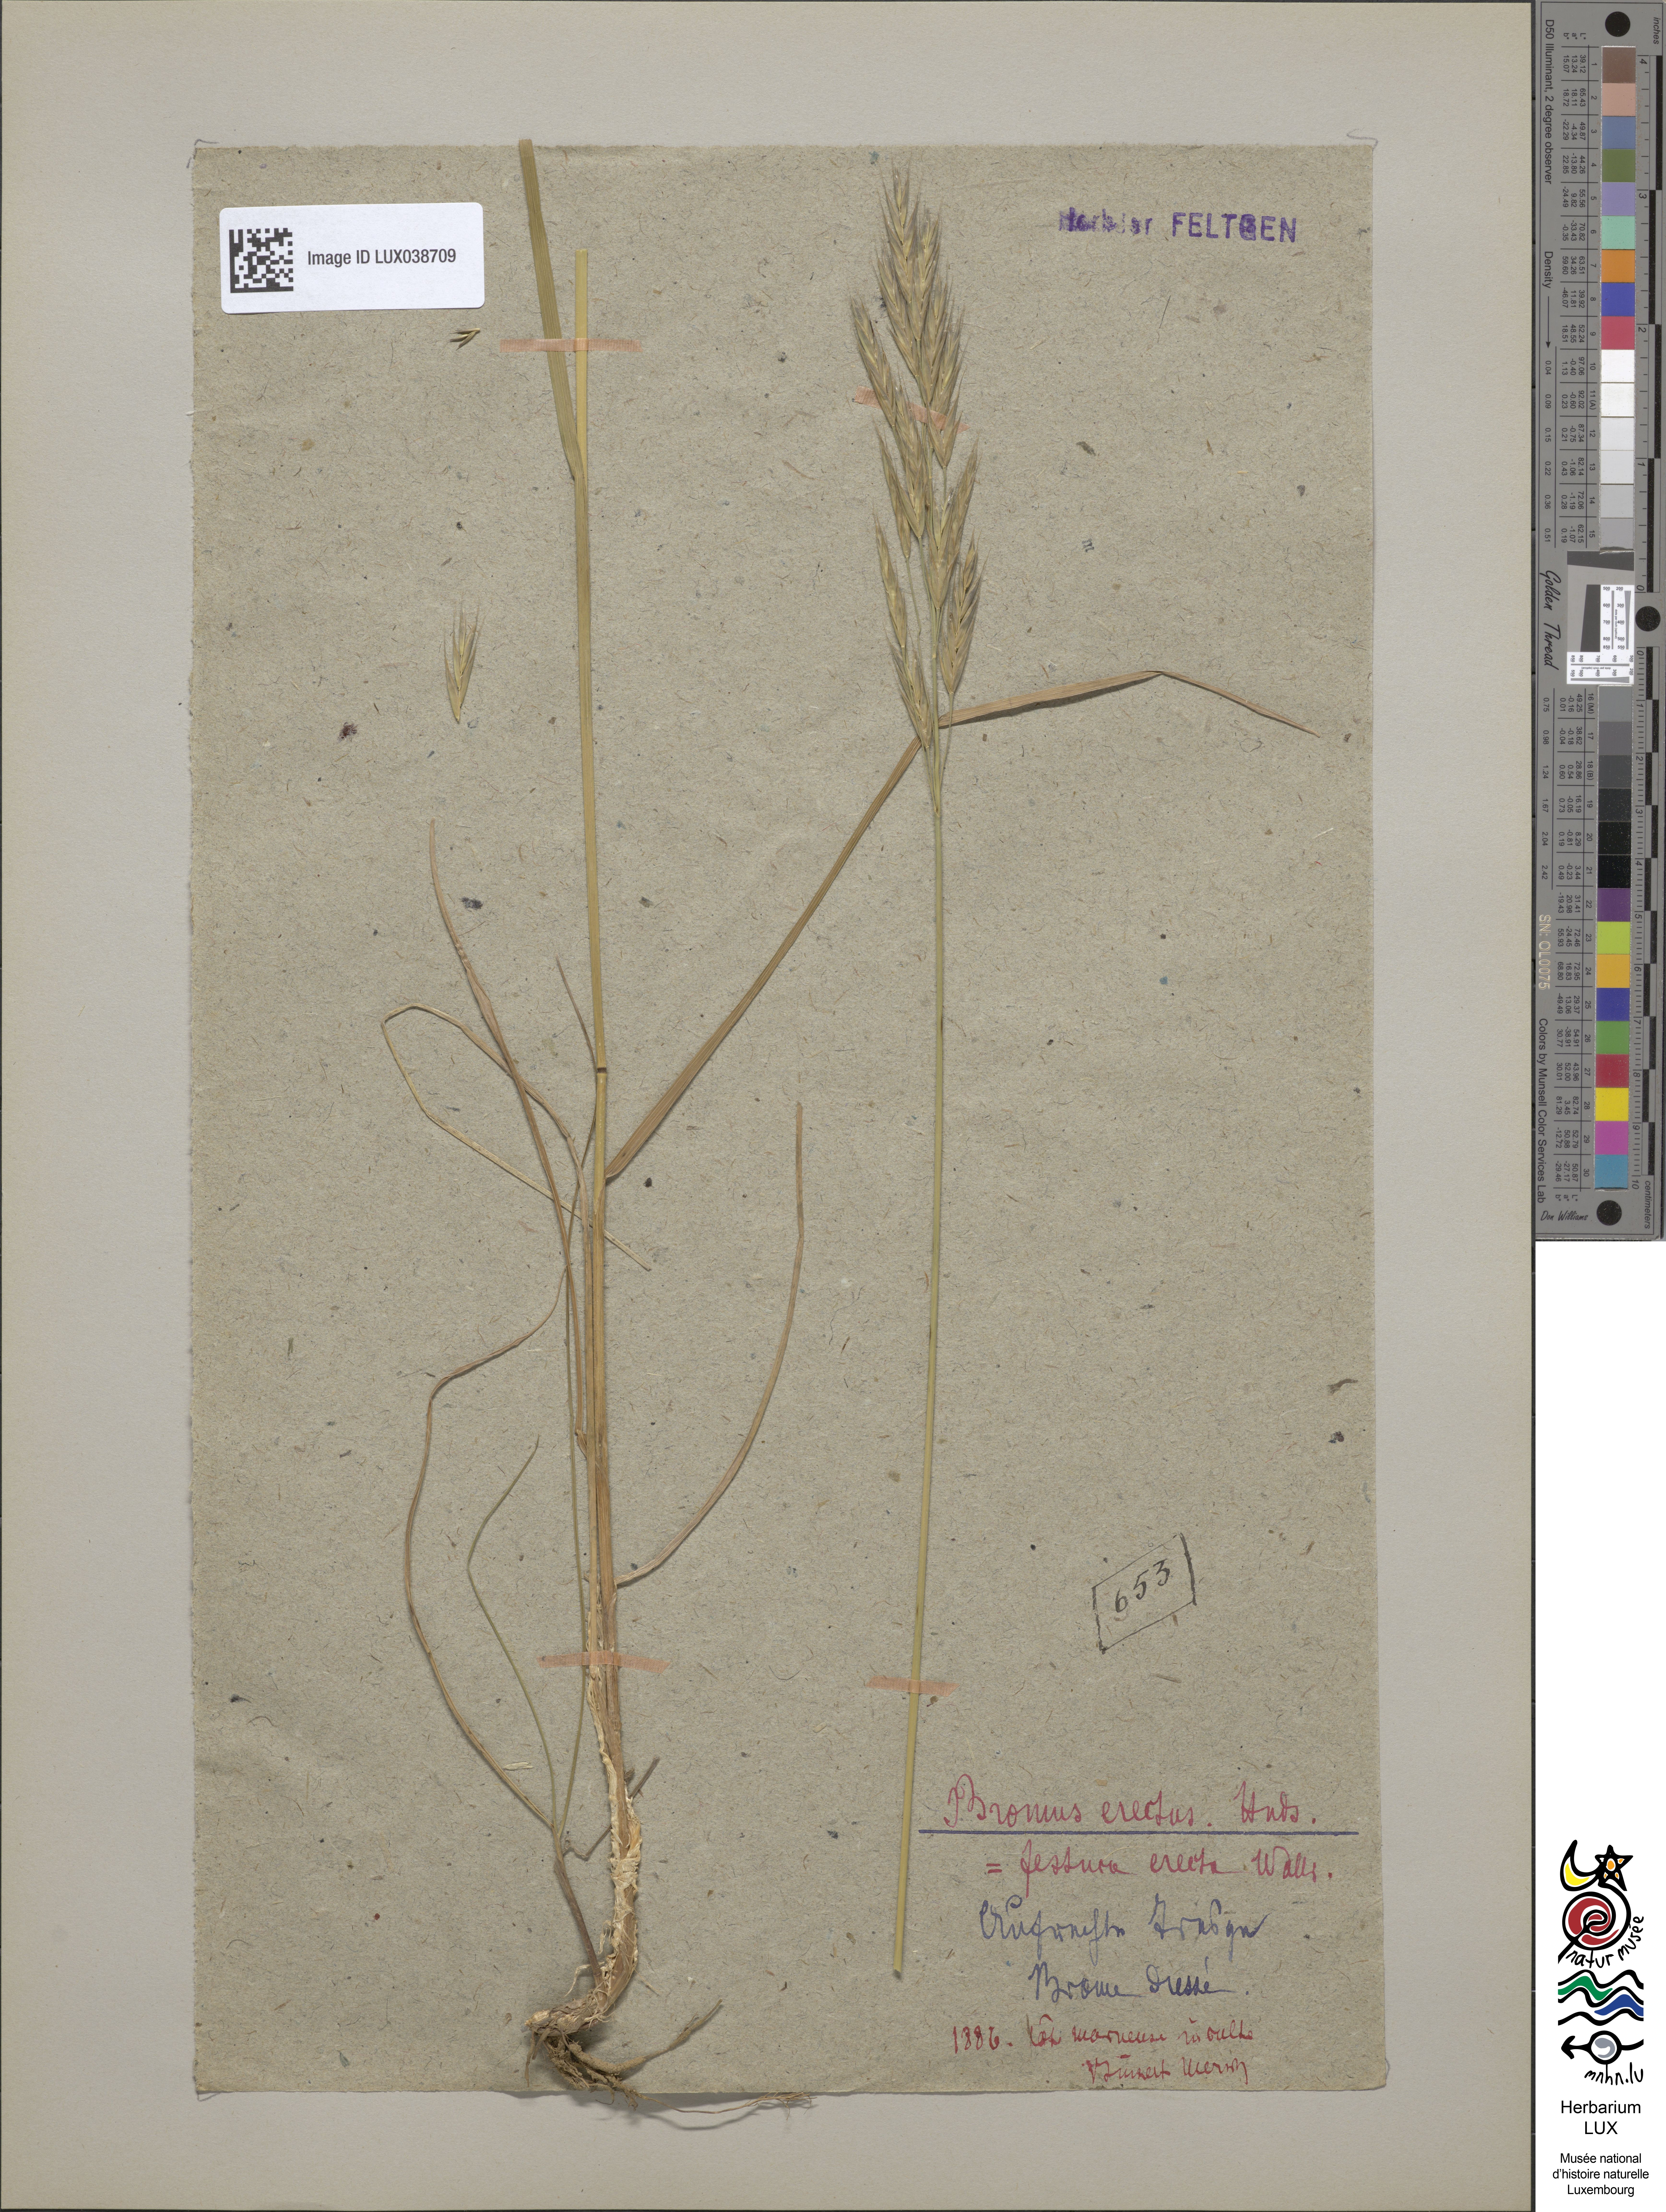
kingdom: Plantae
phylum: Tracheophyta
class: Liliopsida
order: Poales
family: Poaceae
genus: Bromus
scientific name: Bromus erectus
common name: Erect brome
